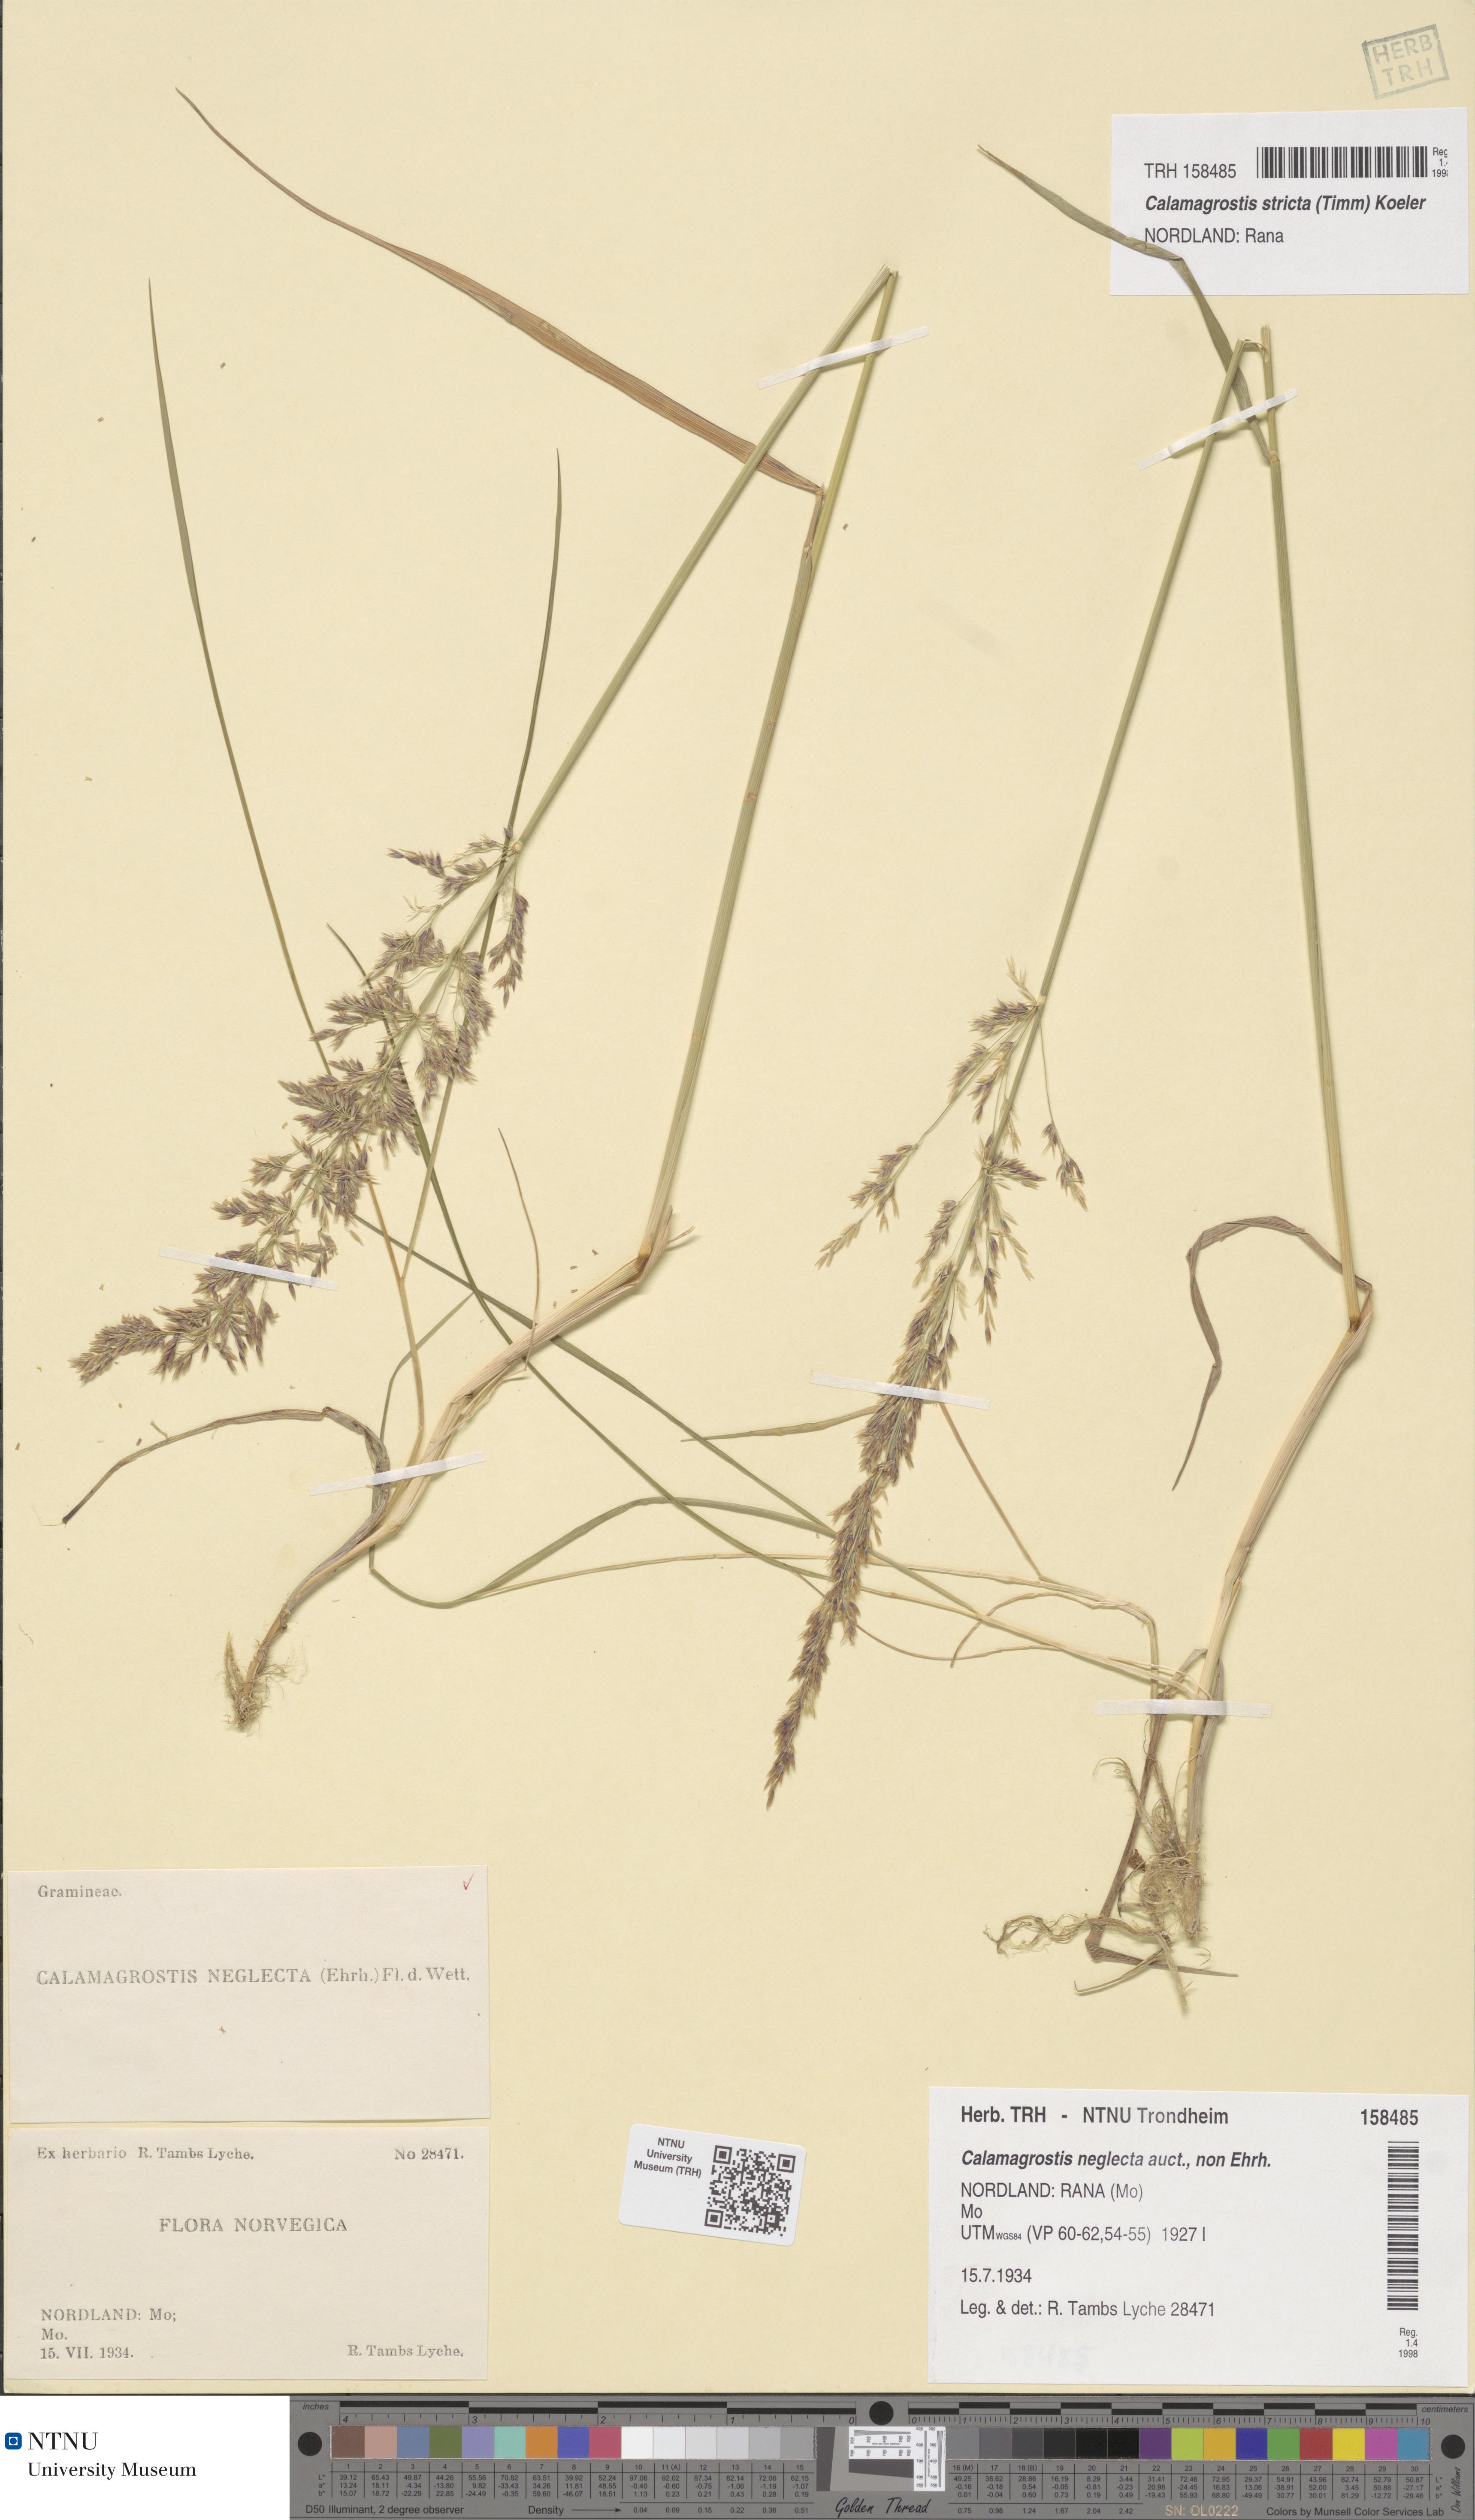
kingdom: Plantae
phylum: Tracheophyta
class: Liliopsida
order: Poales
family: Poaceae
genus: Achnatherum
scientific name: Achnatherum calamagrostis
